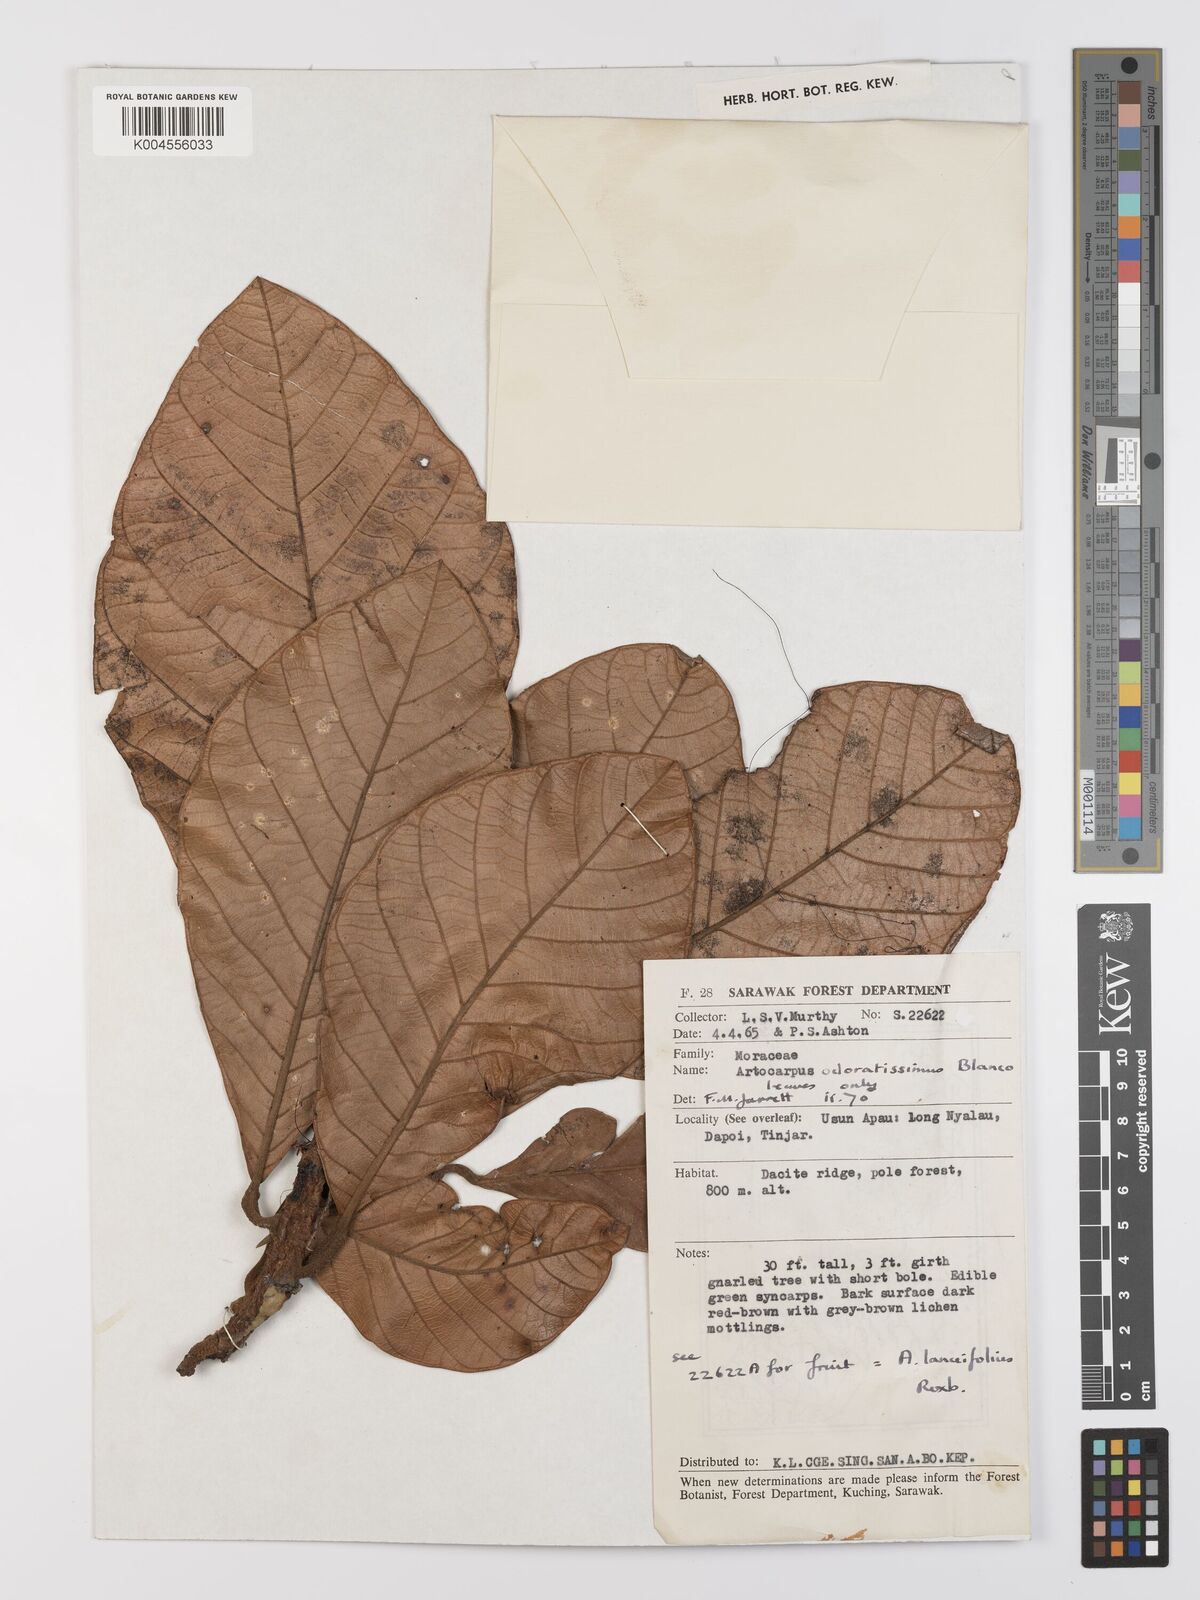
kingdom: Plantae
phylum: Tracheophyta
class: Magnoliopsida
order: Rosales
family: Moraceae
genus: Artocarpus
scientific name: Artocarpus odoratissimus
